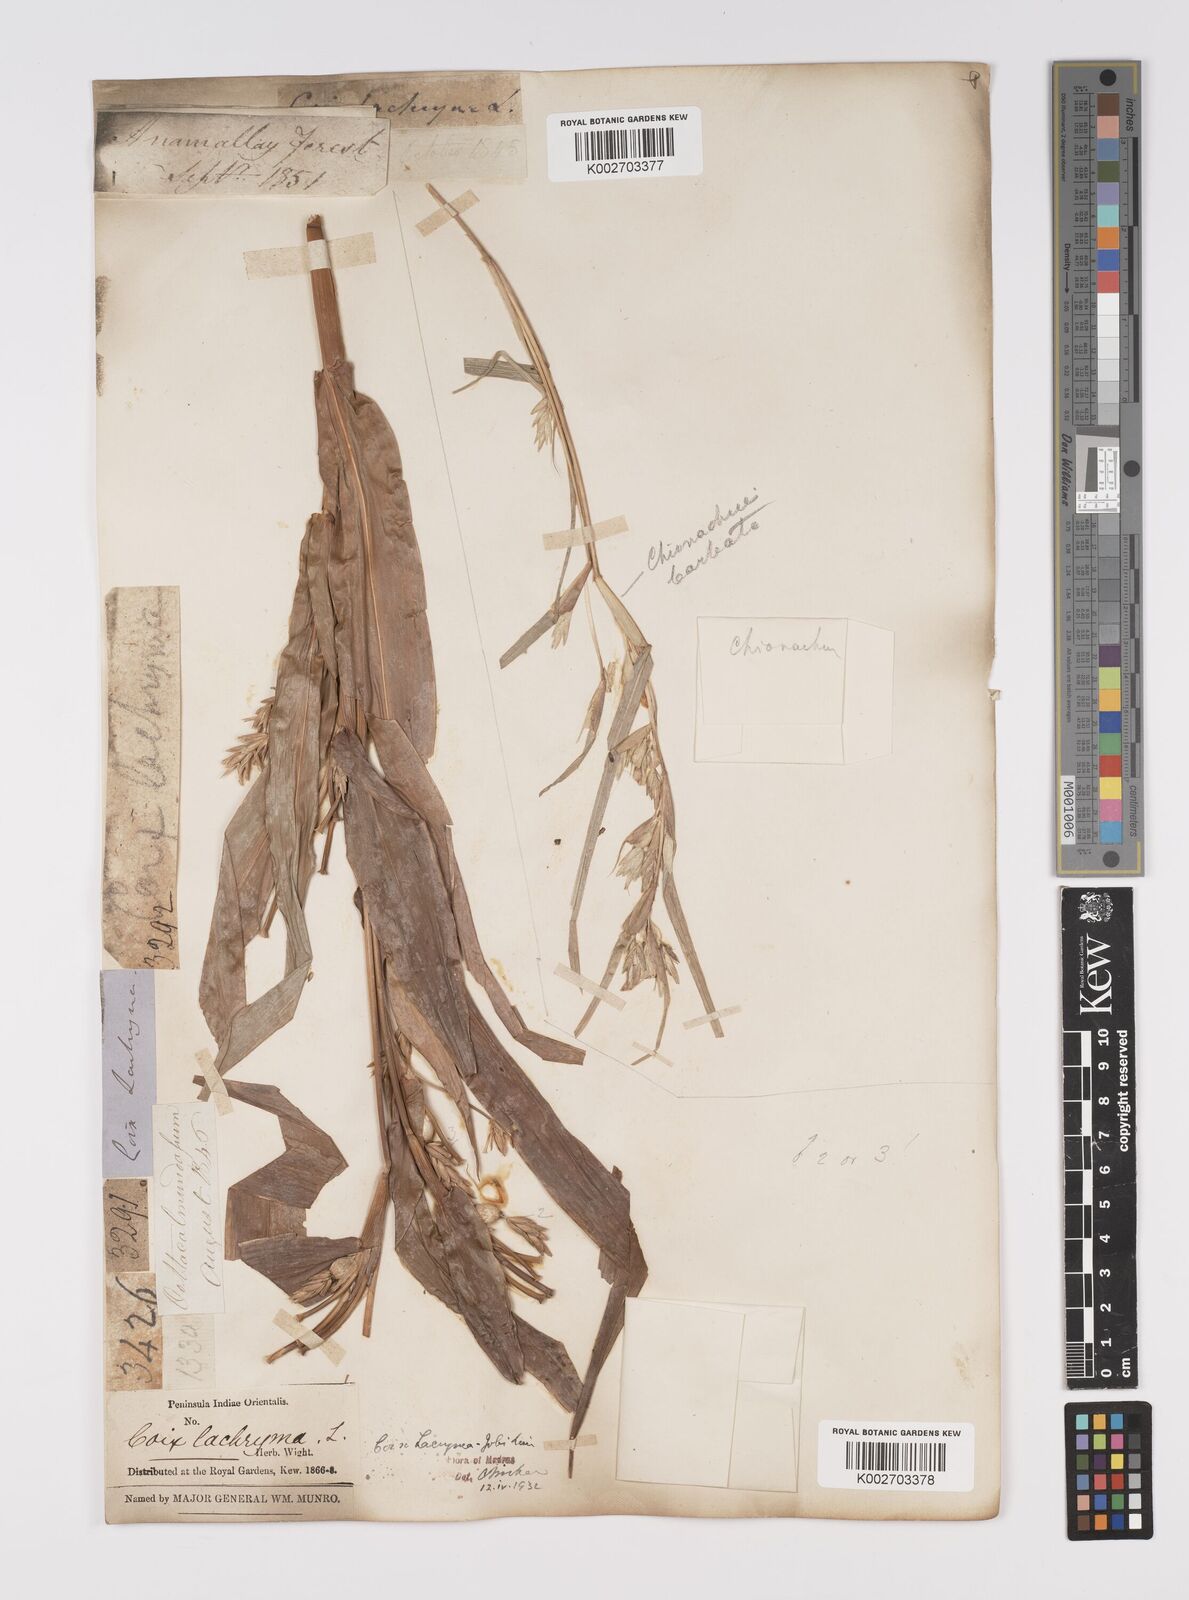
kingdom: Plantae
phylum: Tracheophyta
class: Liliopsida
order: Poales
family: Poaceae
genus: Coix
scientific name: Coix lacryma-jobi
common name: Job's tears
